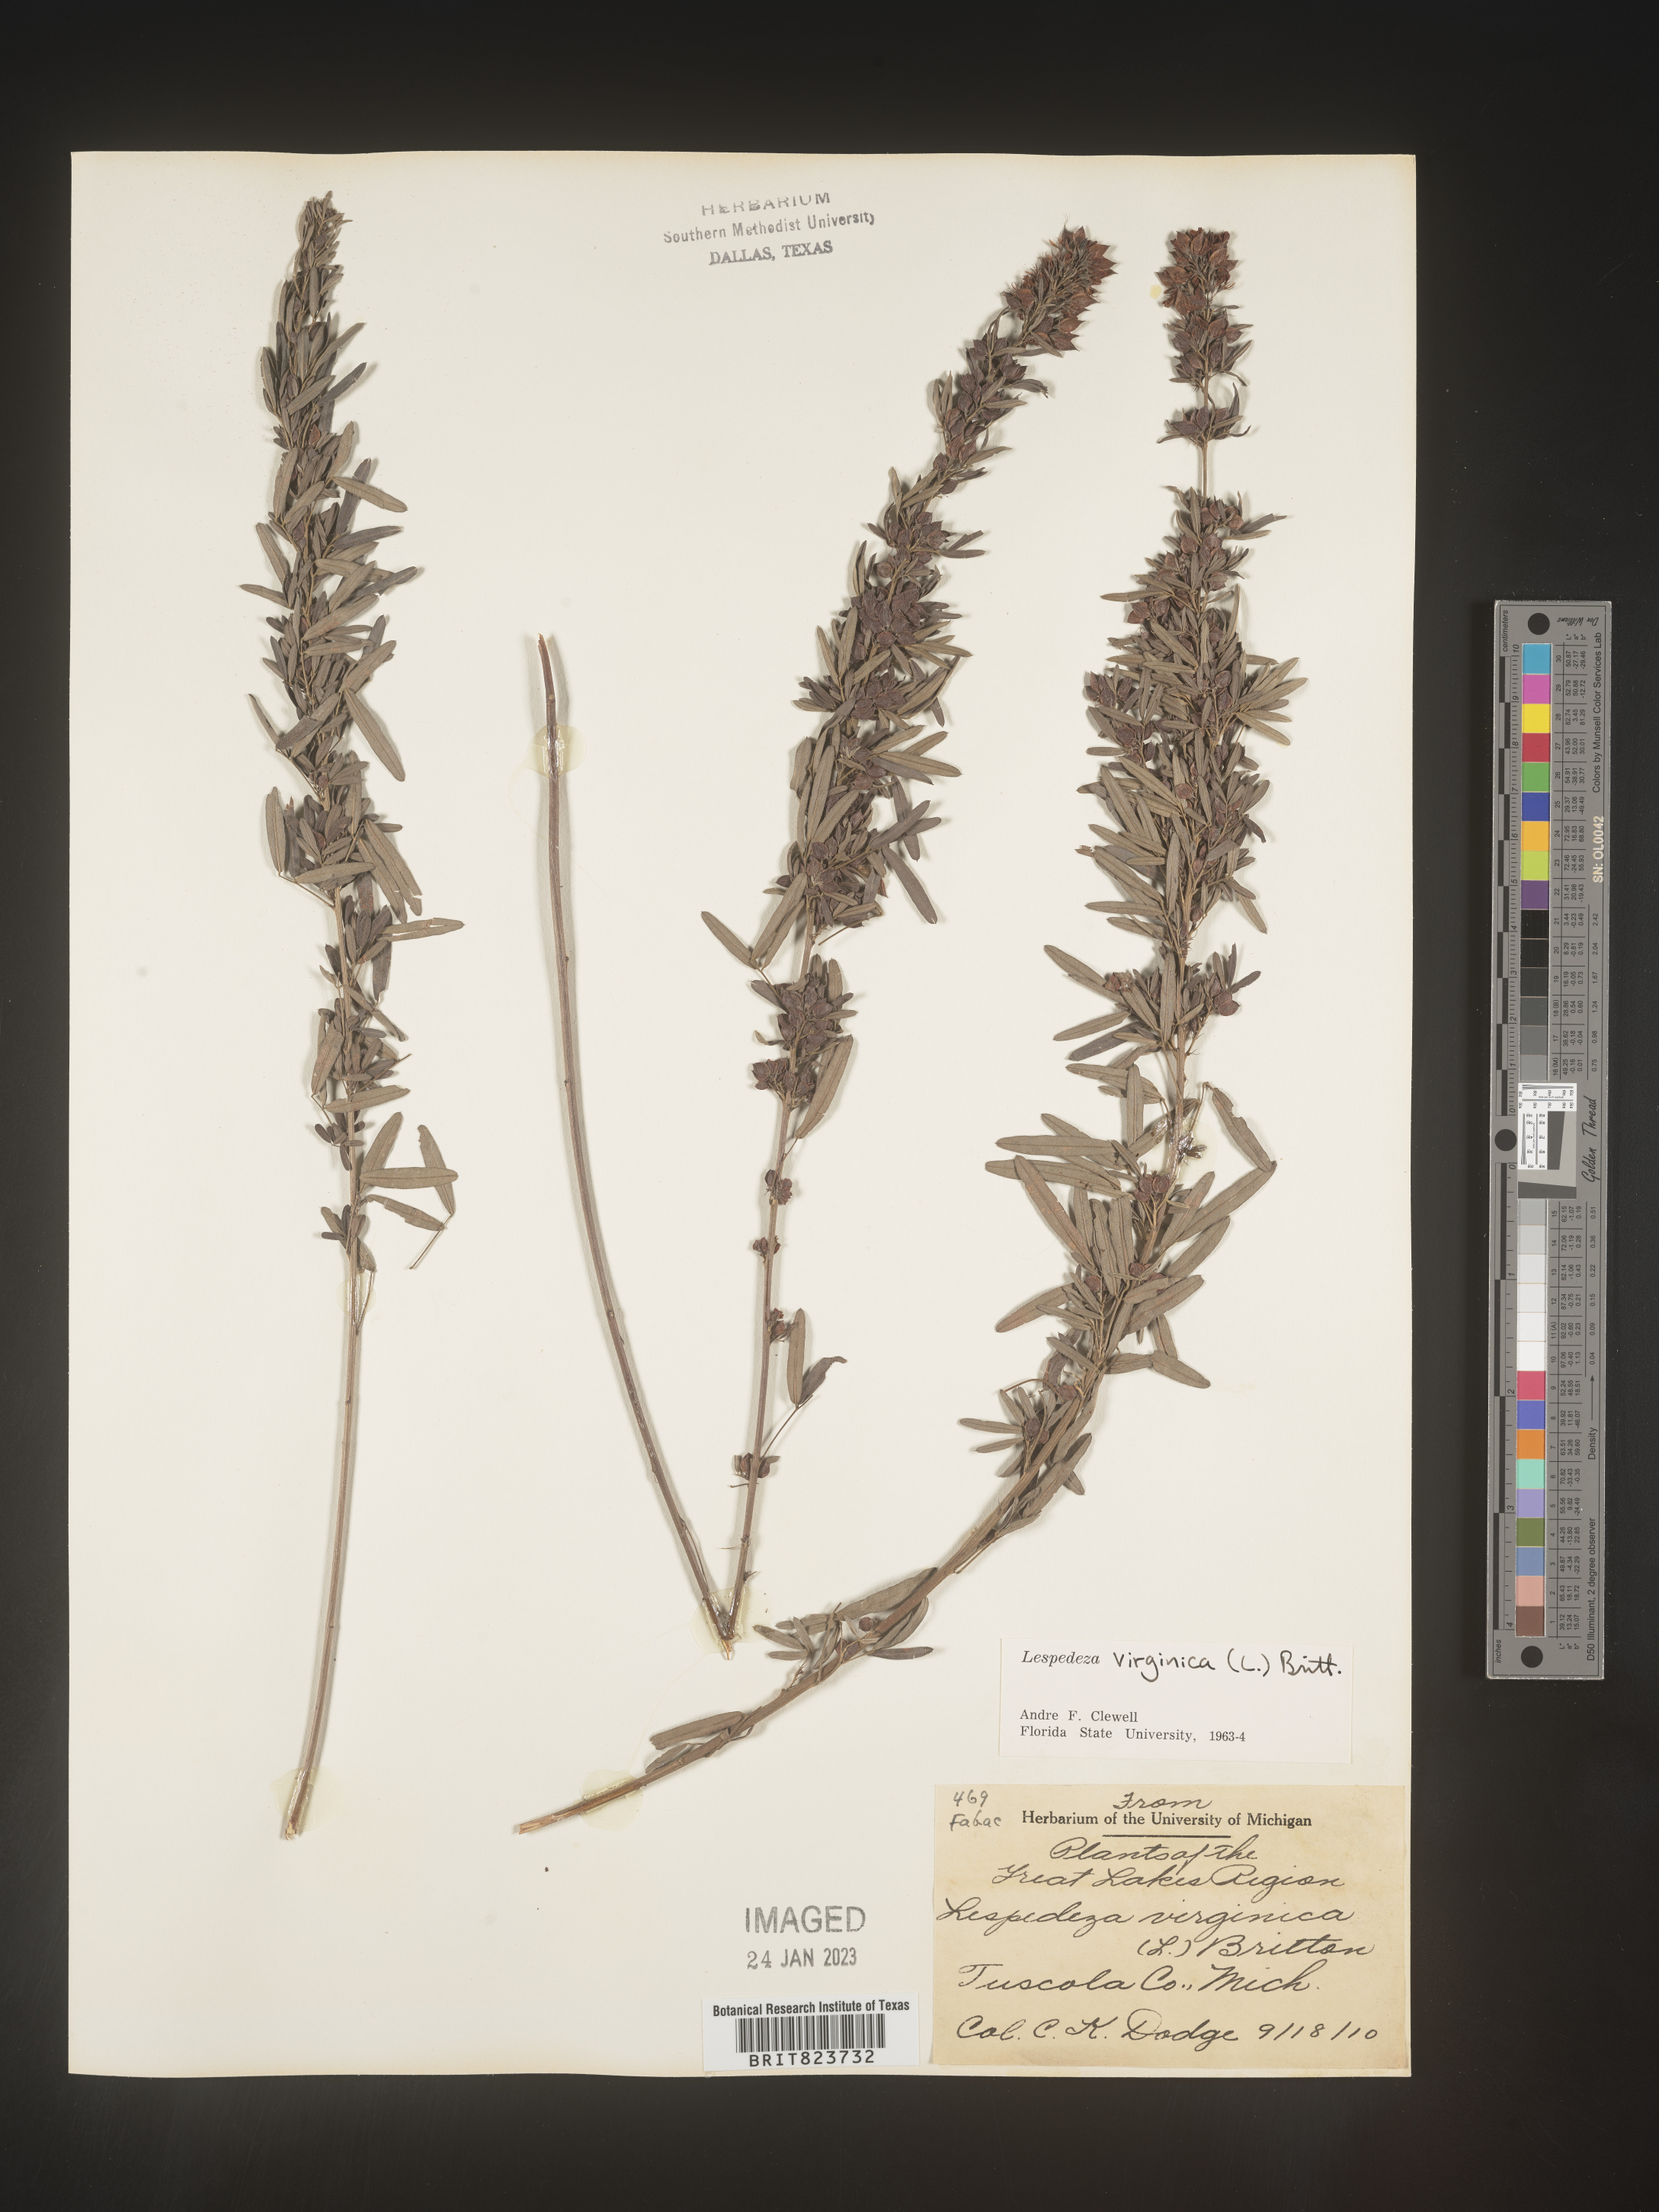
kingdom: Plantae
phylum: Tracheophyta
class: Magnoliopsida
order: Fabales
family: Fabaceae
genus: Lespedeza
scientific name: Lespedeza virginica
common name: Slender bush-clover
